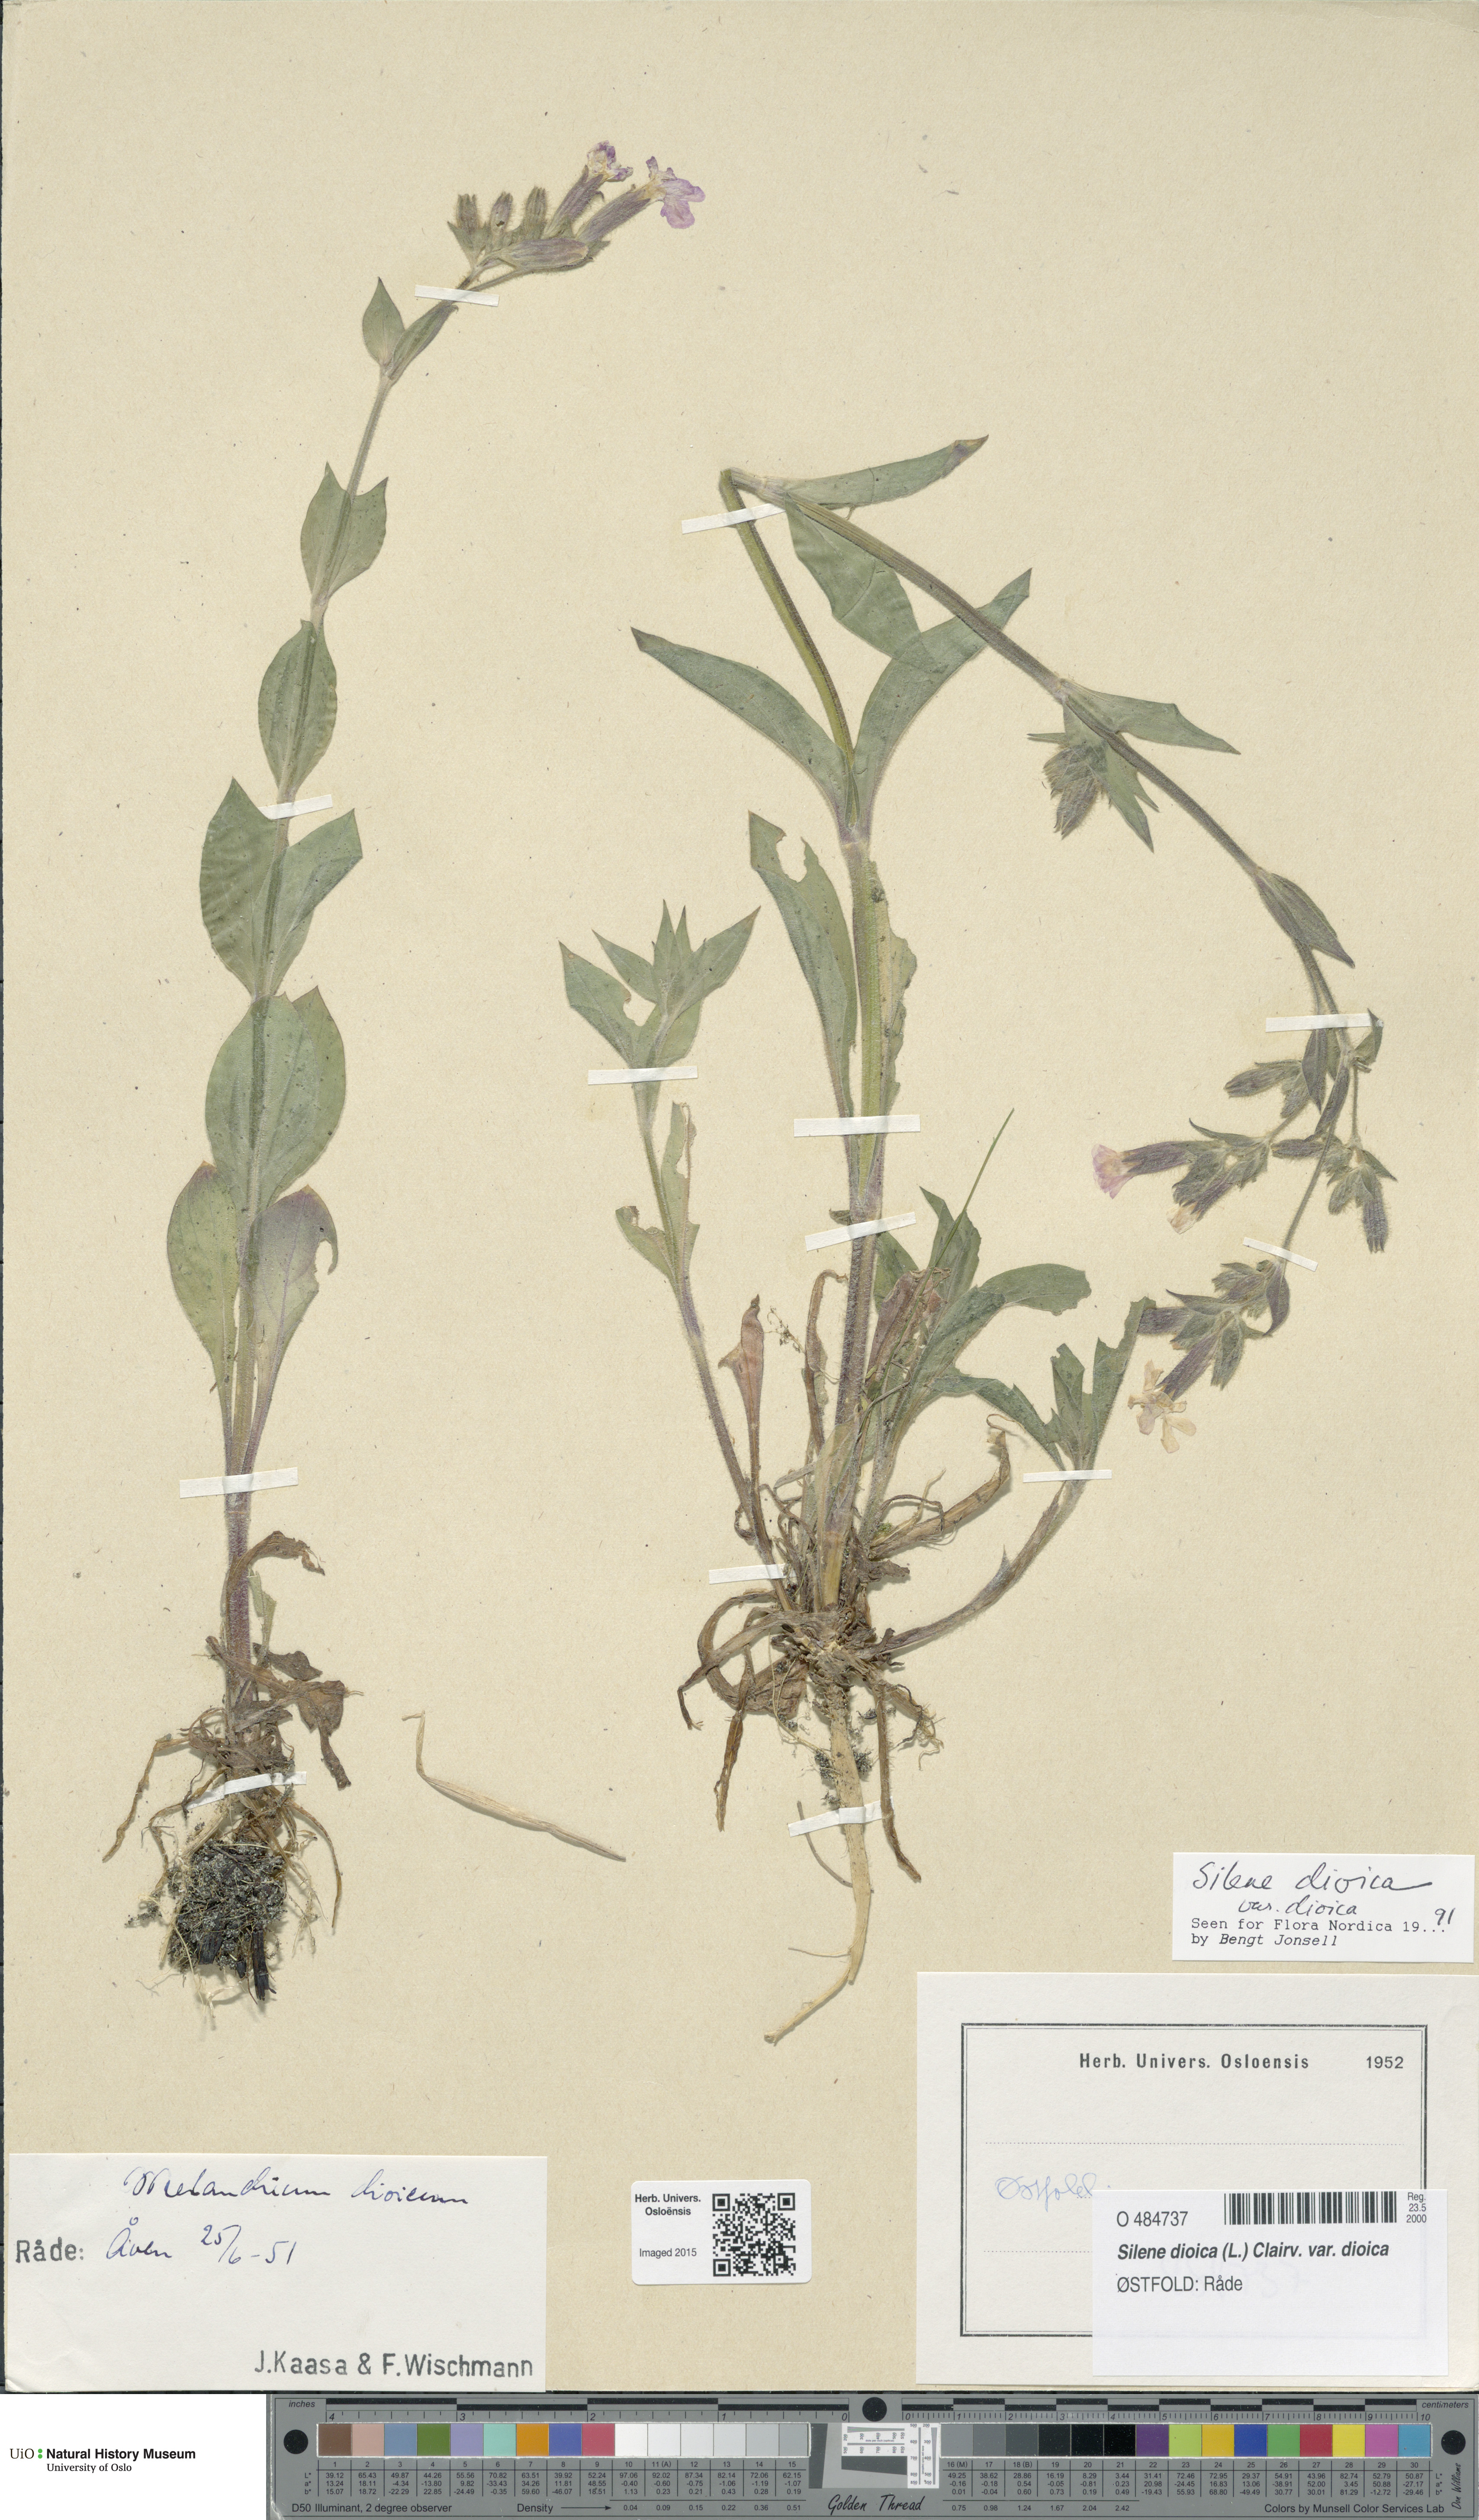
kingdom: Plantae
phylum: Tracheophyta
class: Magnoliopsida
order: Caryophyllales
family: Caryophyllaceae
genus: Silene
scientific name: Silene dioica
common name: Red campion
